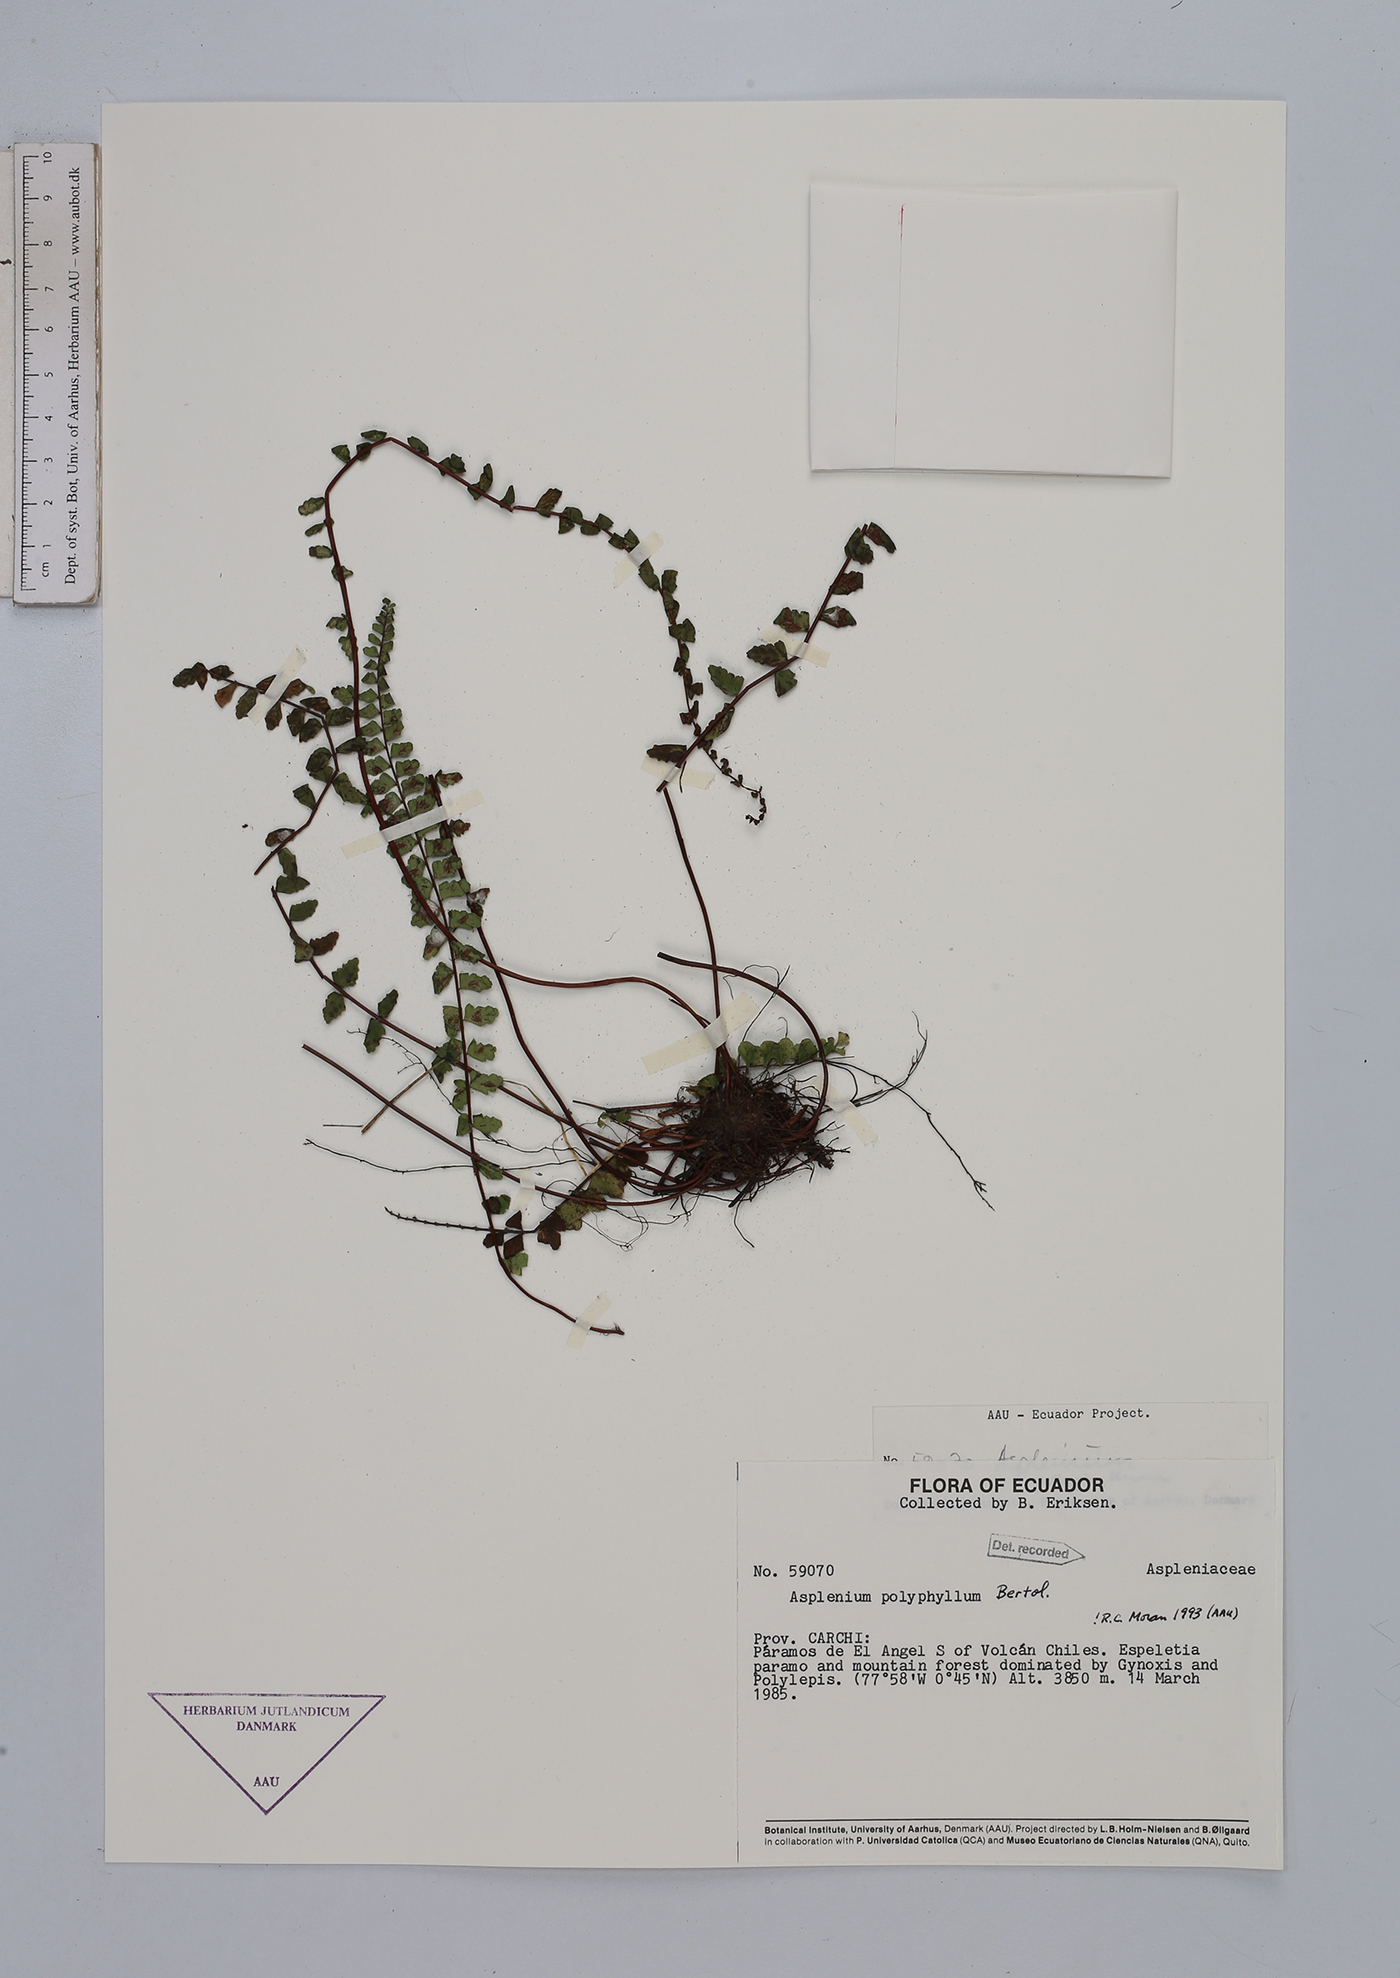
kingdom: Plantae
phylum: Tracheophyta
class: Polypodiopsida
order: Polypodiales
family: Aspleniaceae
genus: Asplenium
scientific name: Asplenium polyphyllum
